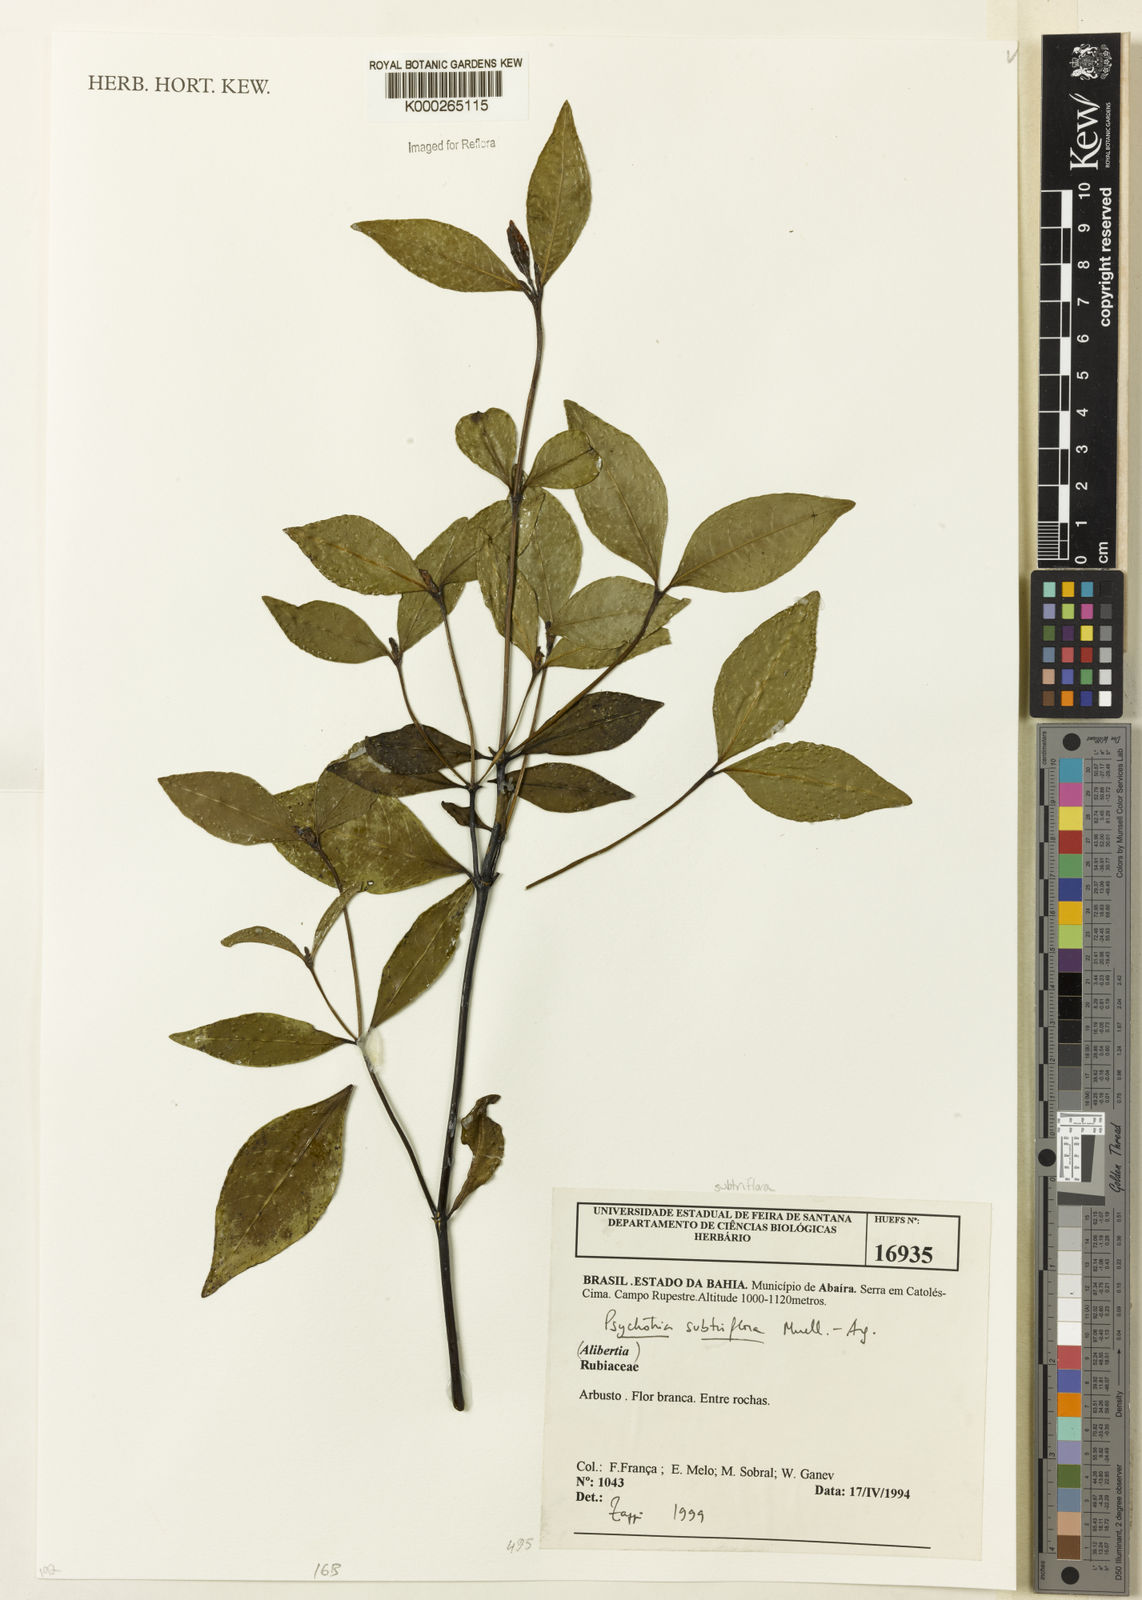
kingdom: Plantae
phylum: Tracheophyta
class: Magnoliopsida
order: Gentianales
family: Rubiaceae
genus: Psychotria
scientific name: Psychotria
